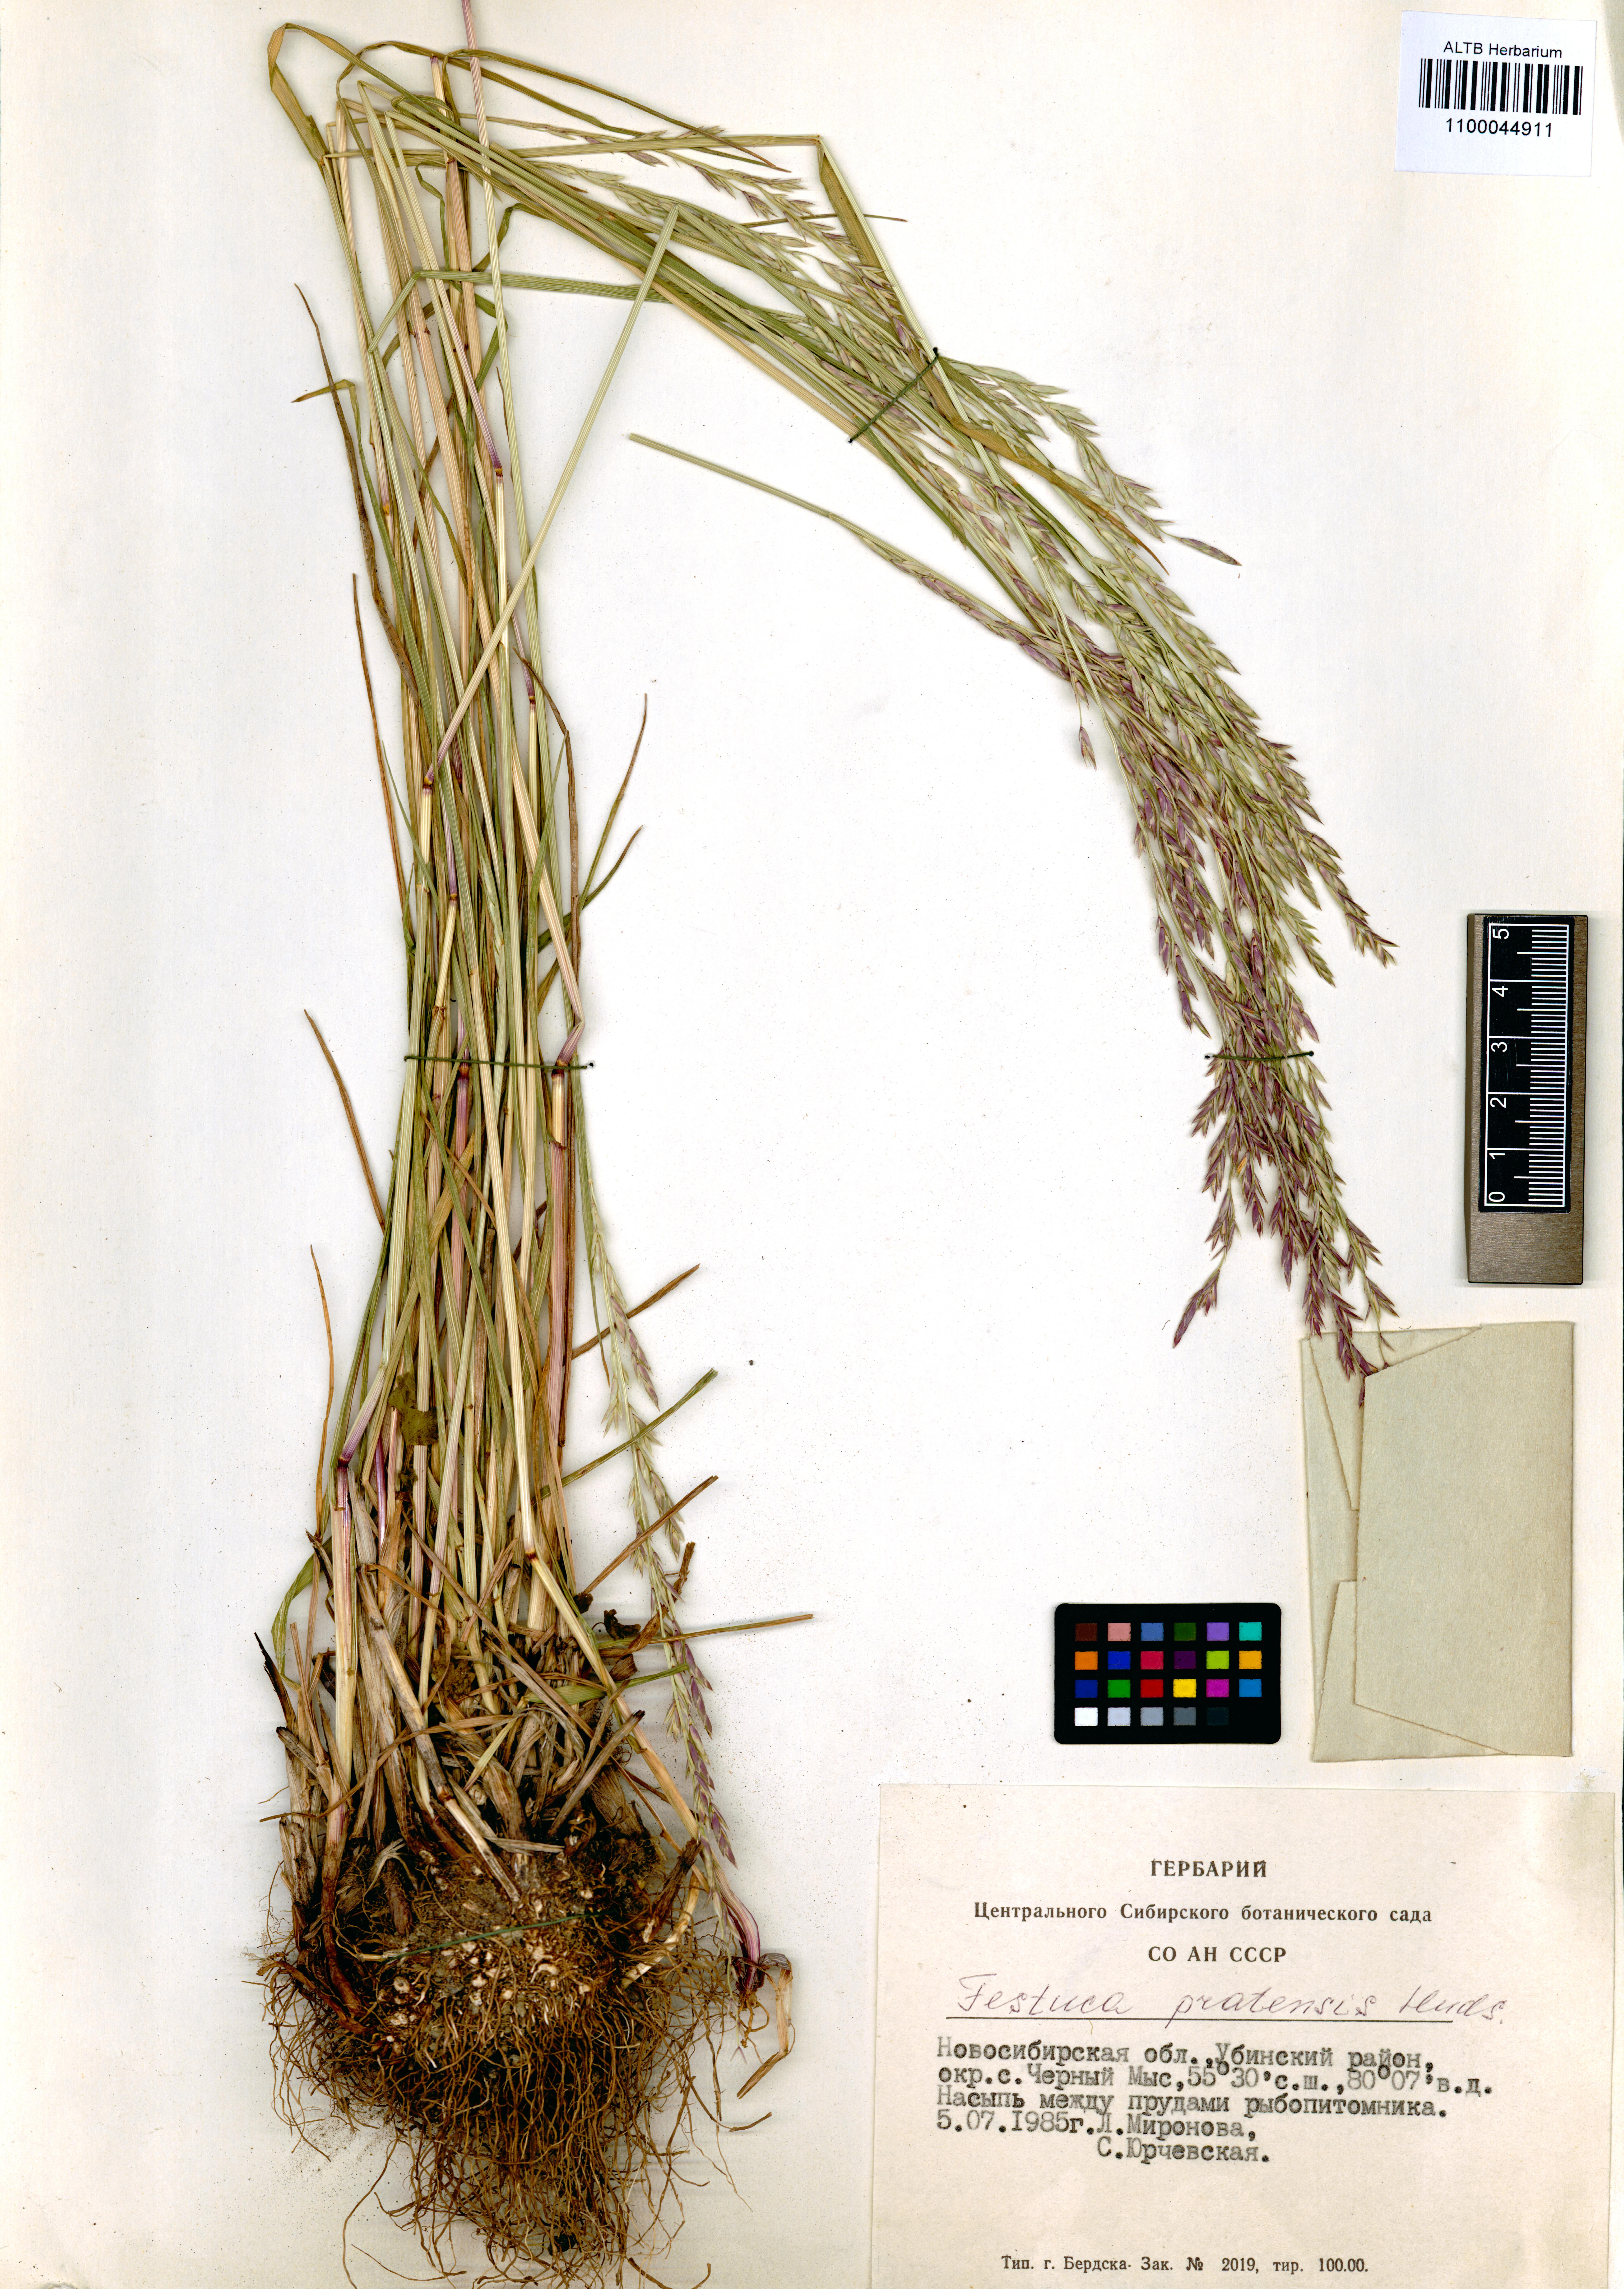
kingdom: Plantae
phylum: Tracheophyta
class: Liliopsida
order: Poales
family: Poaceae
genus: Lolium
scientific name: Lolium pratense
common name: Dover grass
